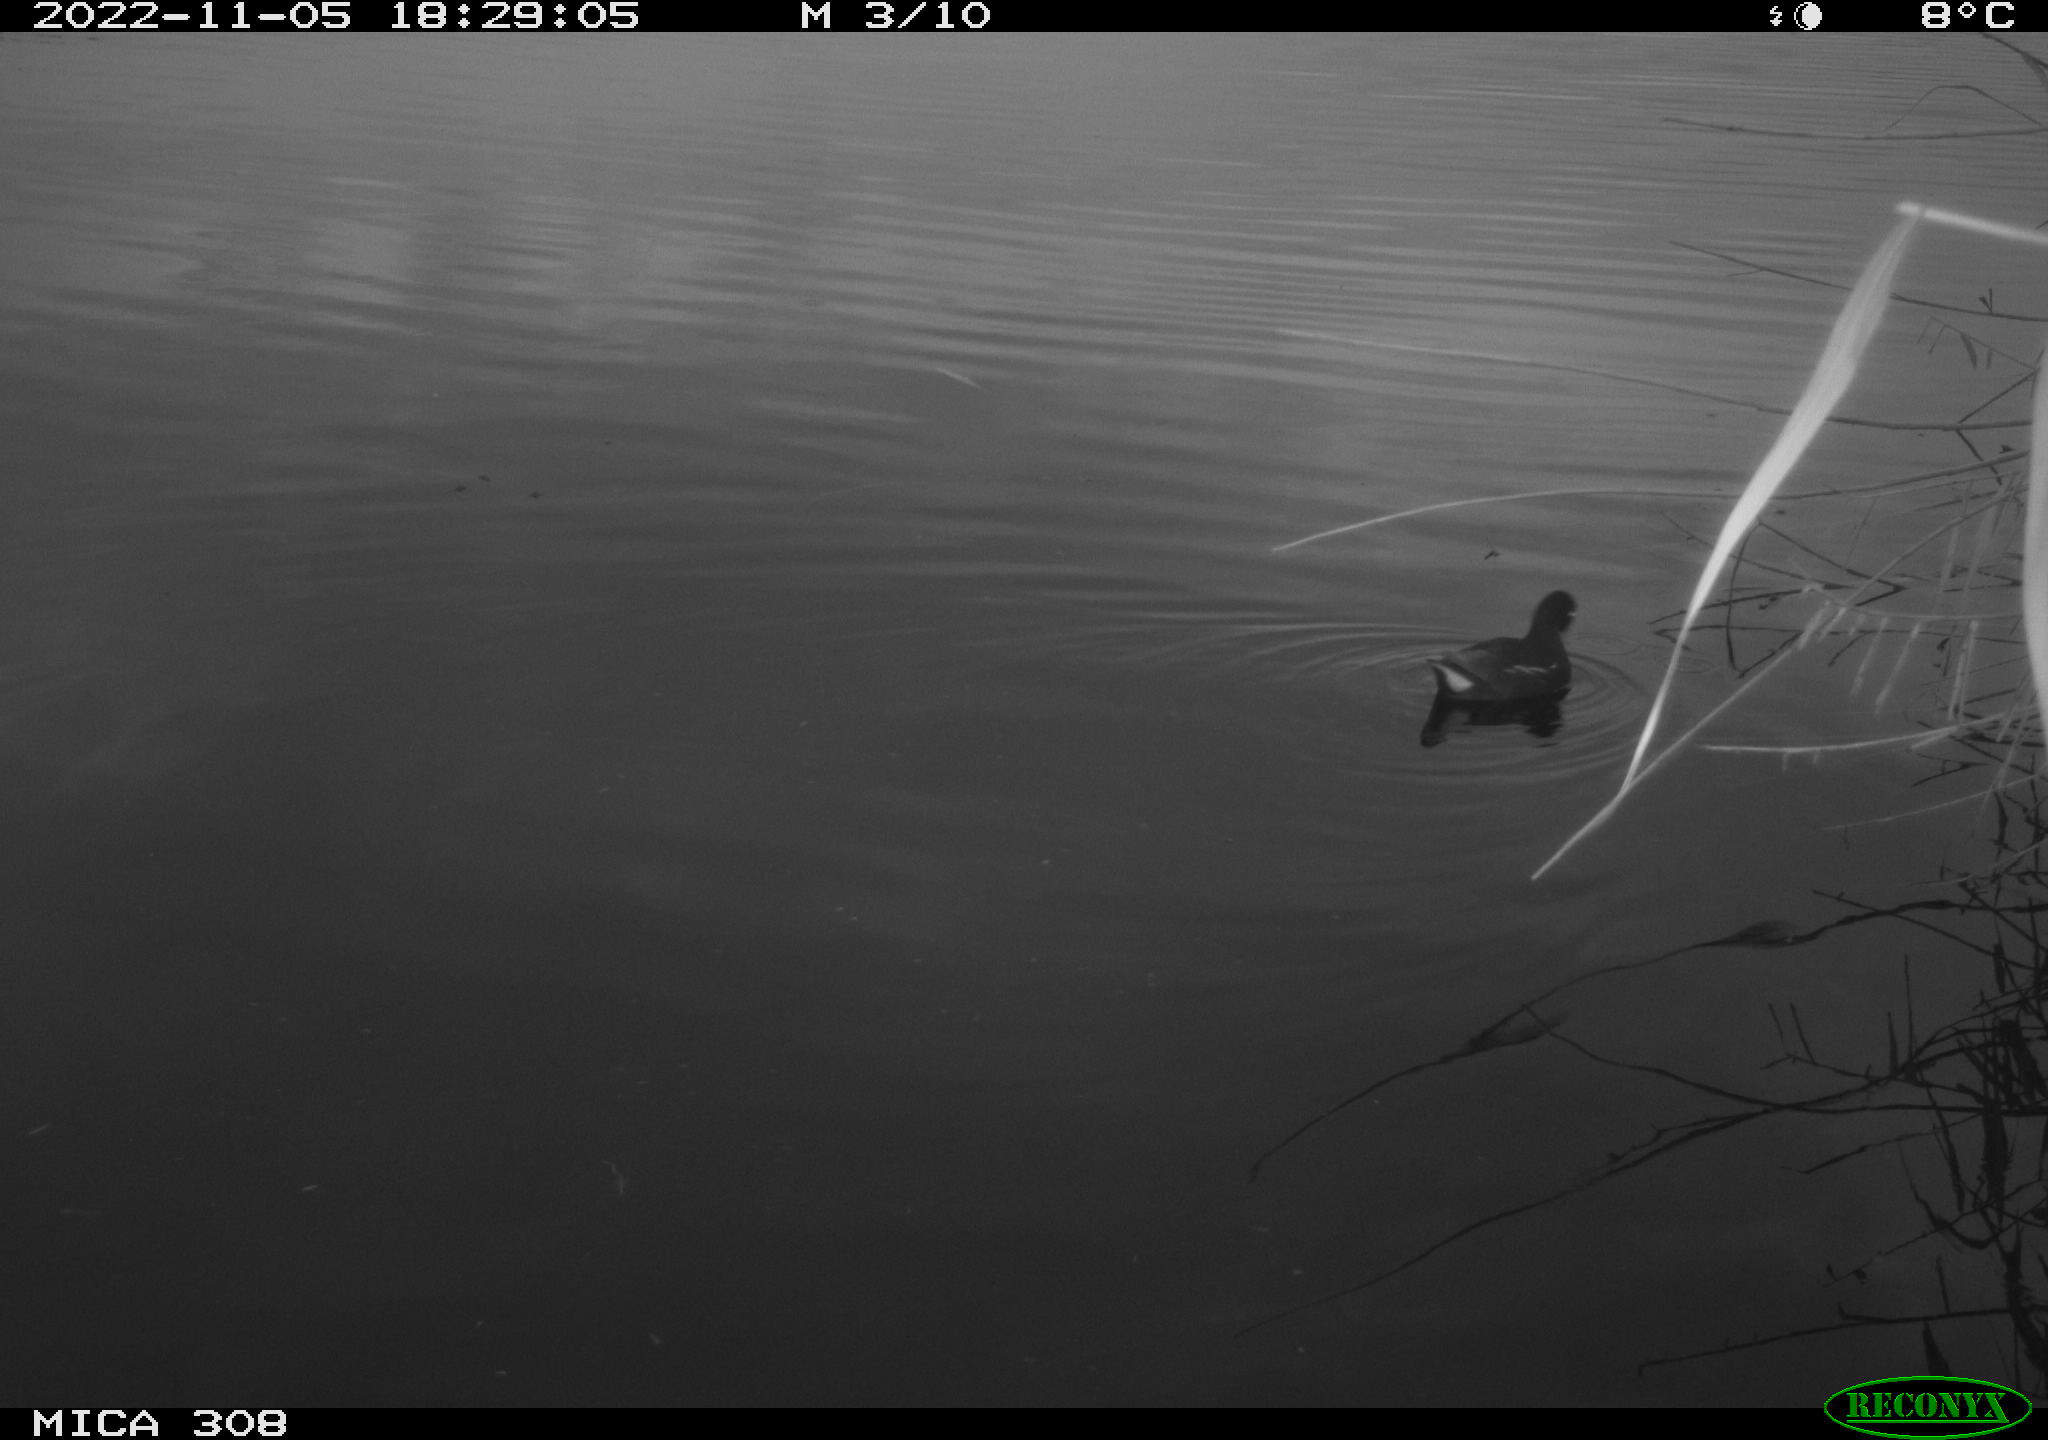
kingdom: Animalia
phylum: Chordata
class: Aves
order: Gruiformes
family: Rallidae
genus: Gallinula
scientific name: Gallinula chloropus
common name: Common moorhen
